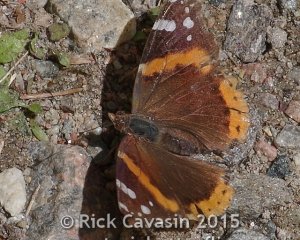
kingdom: Animalia
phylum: Arthropoda
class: Insecta
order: Lepidoptera
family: Nymphalidae
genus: Vanessa
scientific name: Vanessa atalanta
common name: Red Admiral
